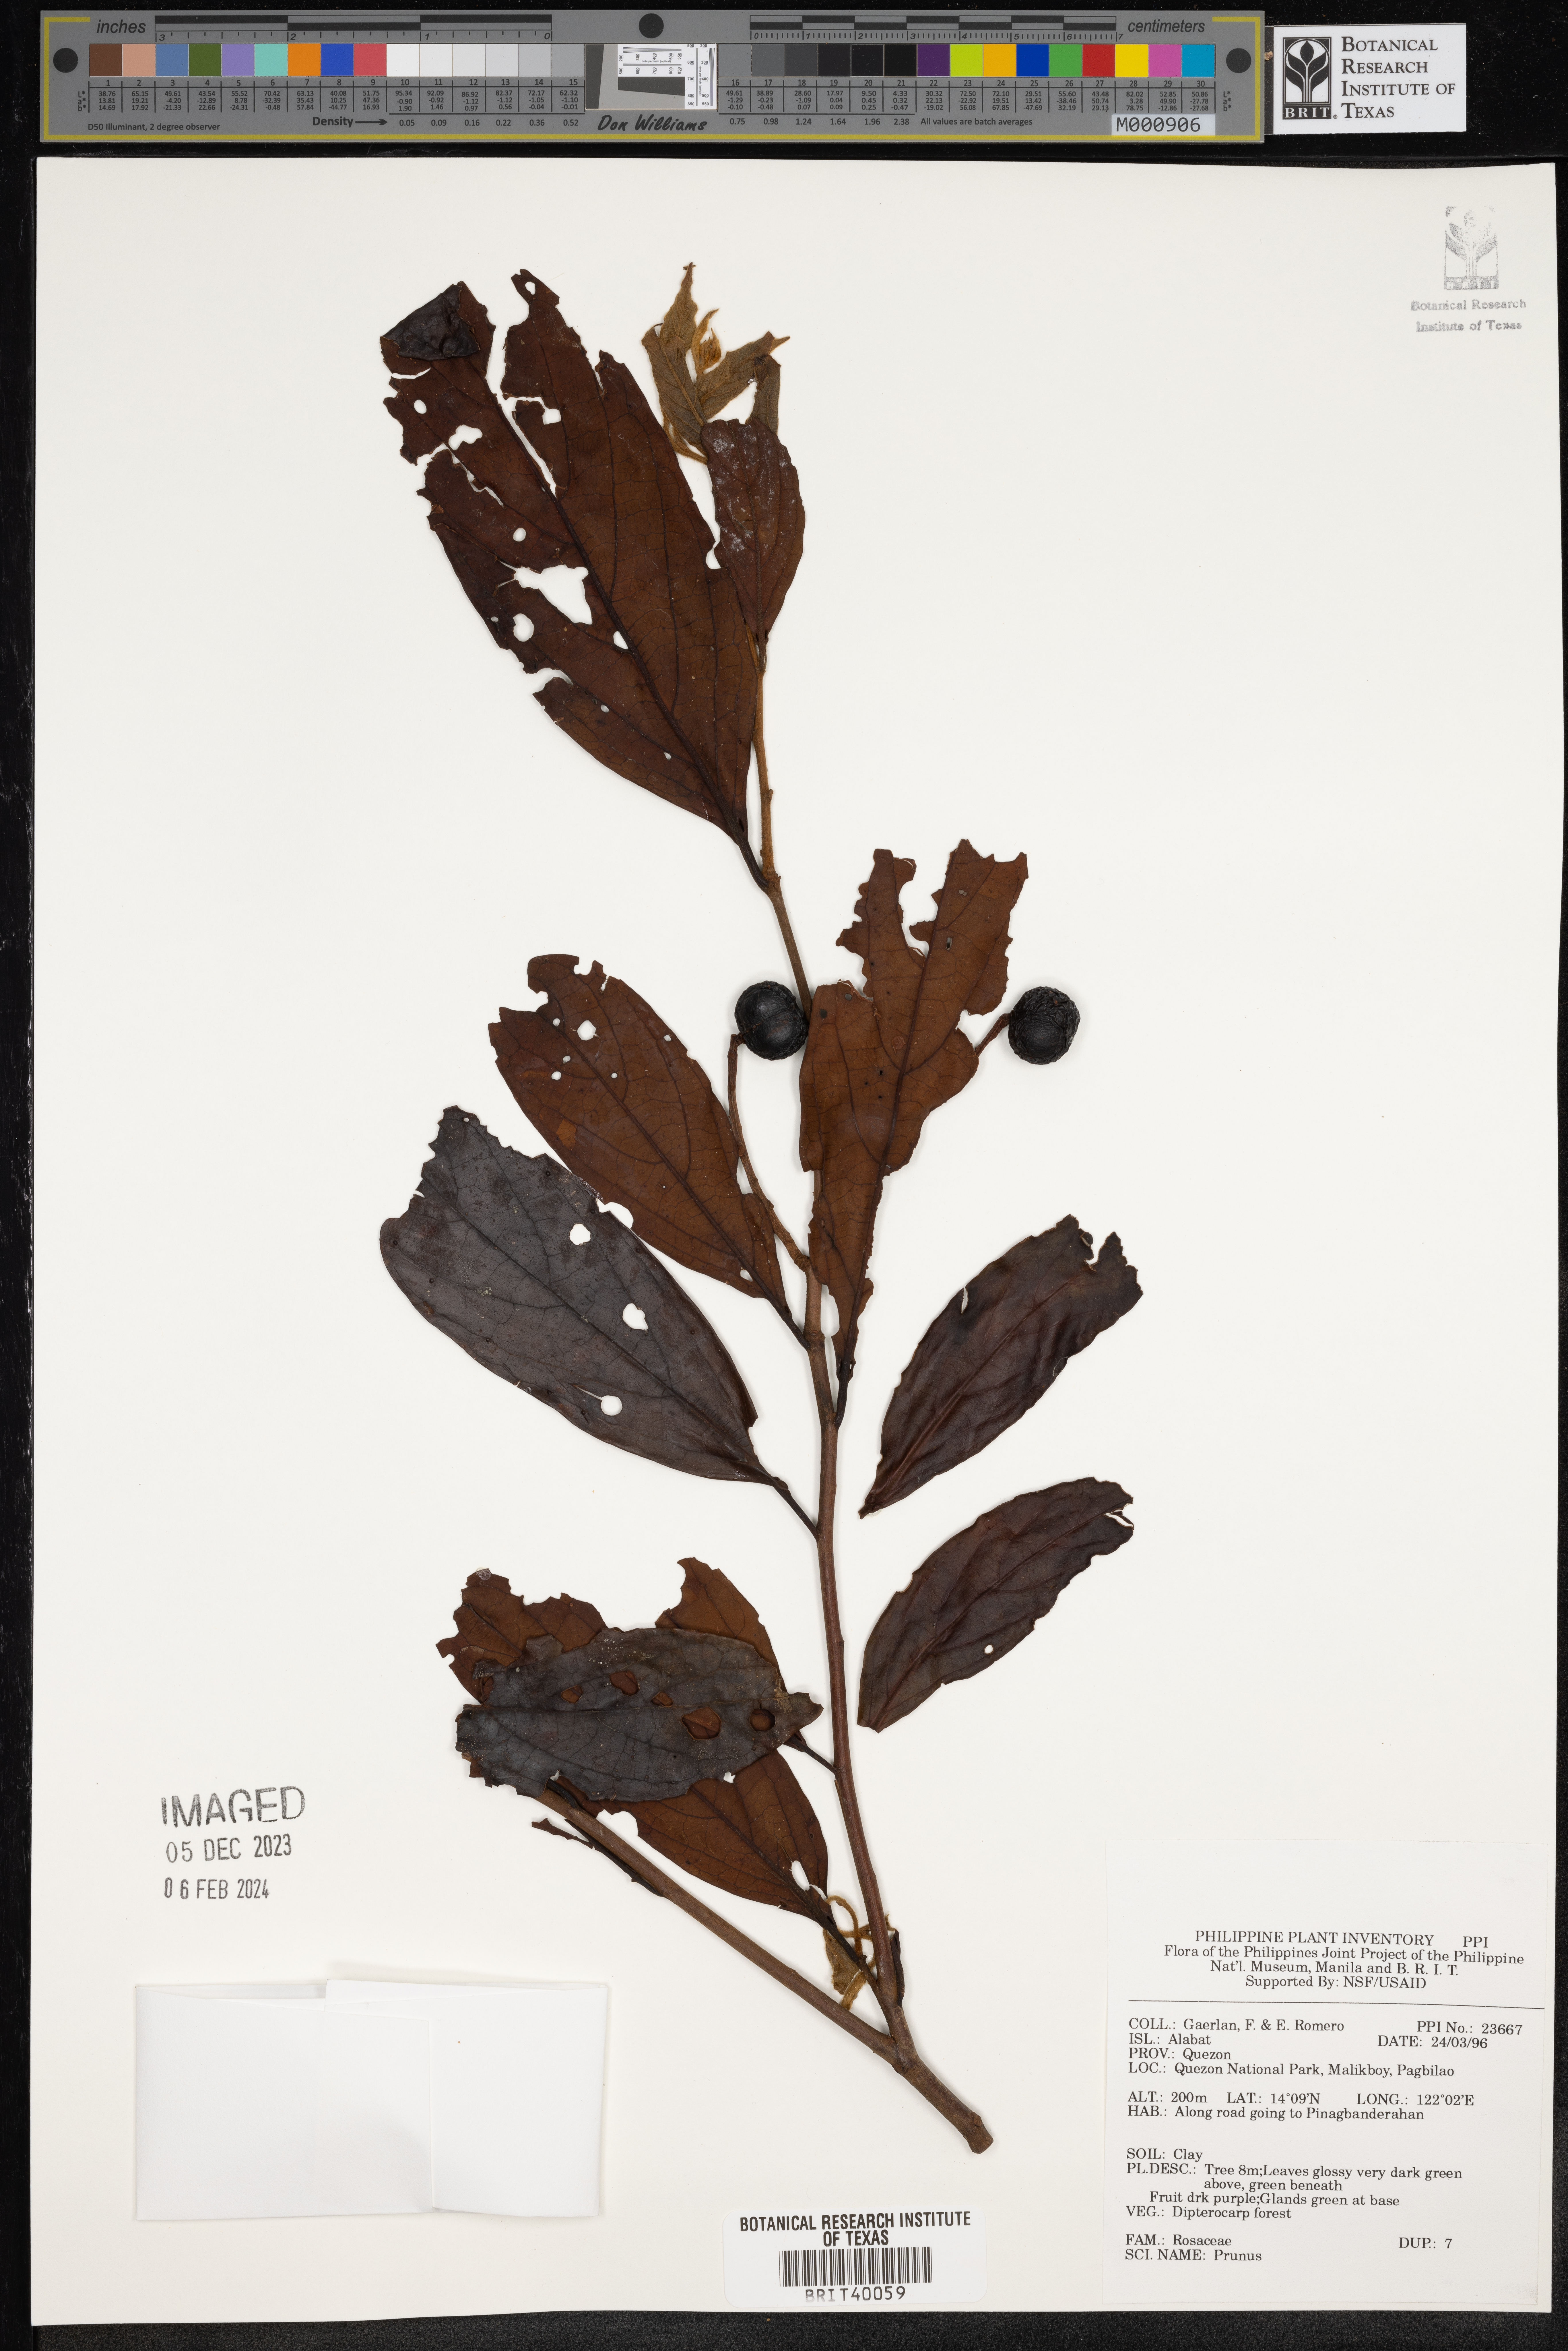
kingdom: Plantae
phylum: Tracheophyta
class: Magnoliopsida
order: Rosales
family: Rosaceae
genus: Prunus
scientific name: Prunus
